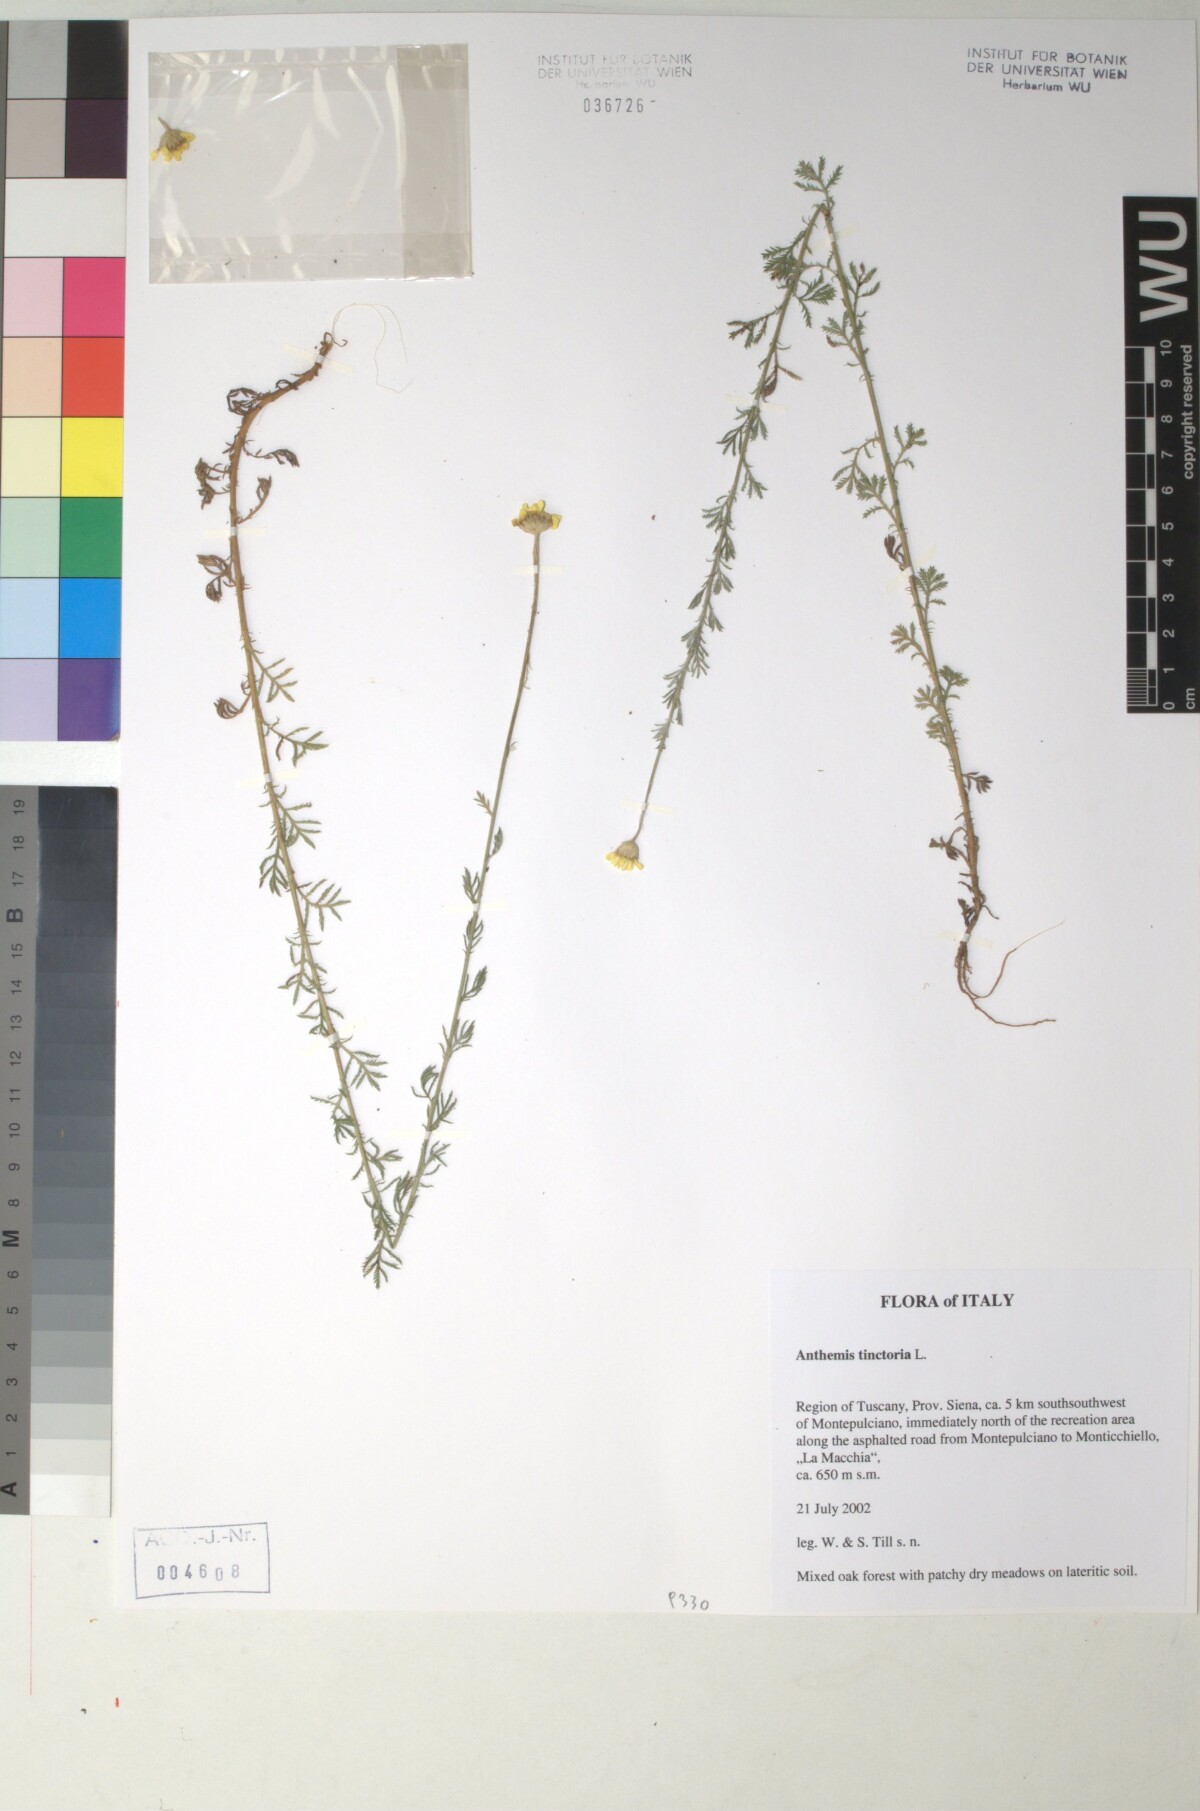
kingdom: Plantae
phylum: Tracheophyta
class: Magnoliopsida
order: Asterales
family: Asteraceae
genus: Cota
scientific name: Cota tinctoria
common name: Golden chamomile
